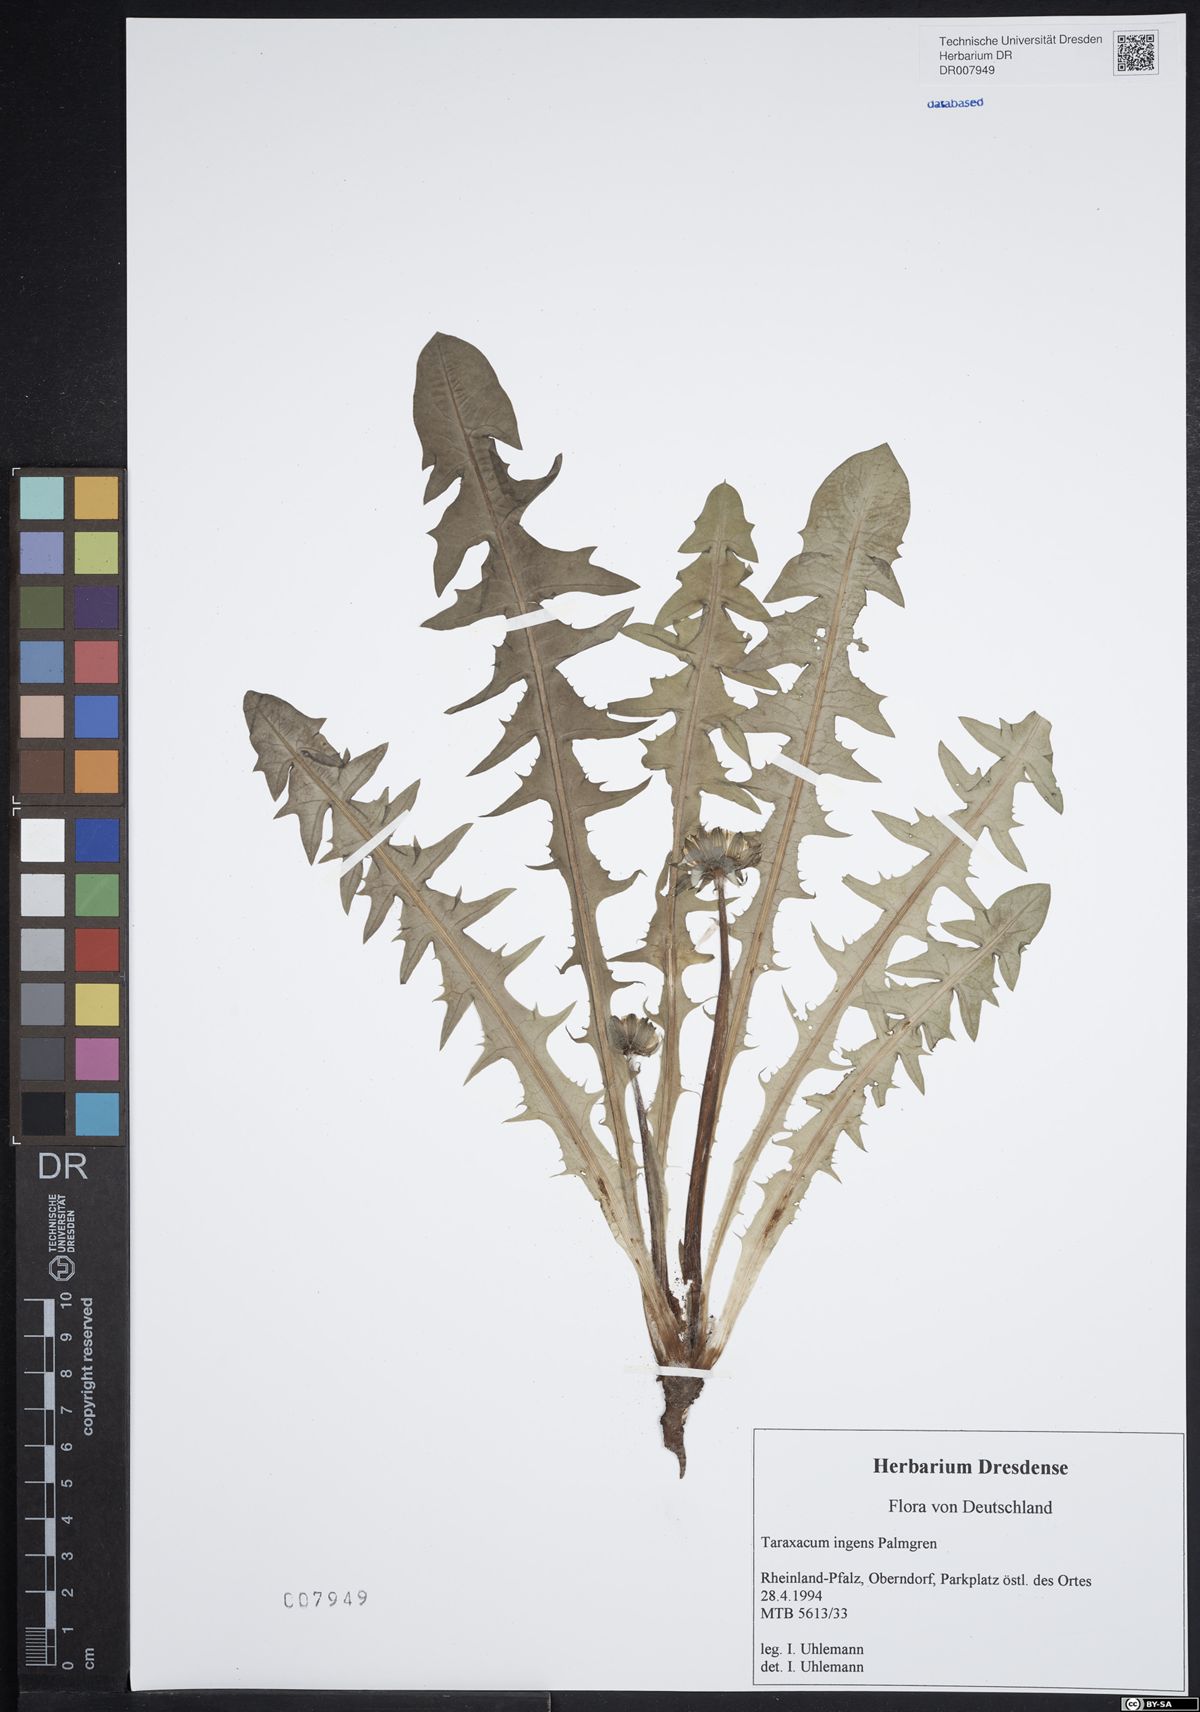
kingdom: Plantae
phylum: Tracheophyta
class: Magnoliopsida
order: Asterales
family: Asteraceae
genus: Taraxacum
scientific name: Taraxacum ingens
